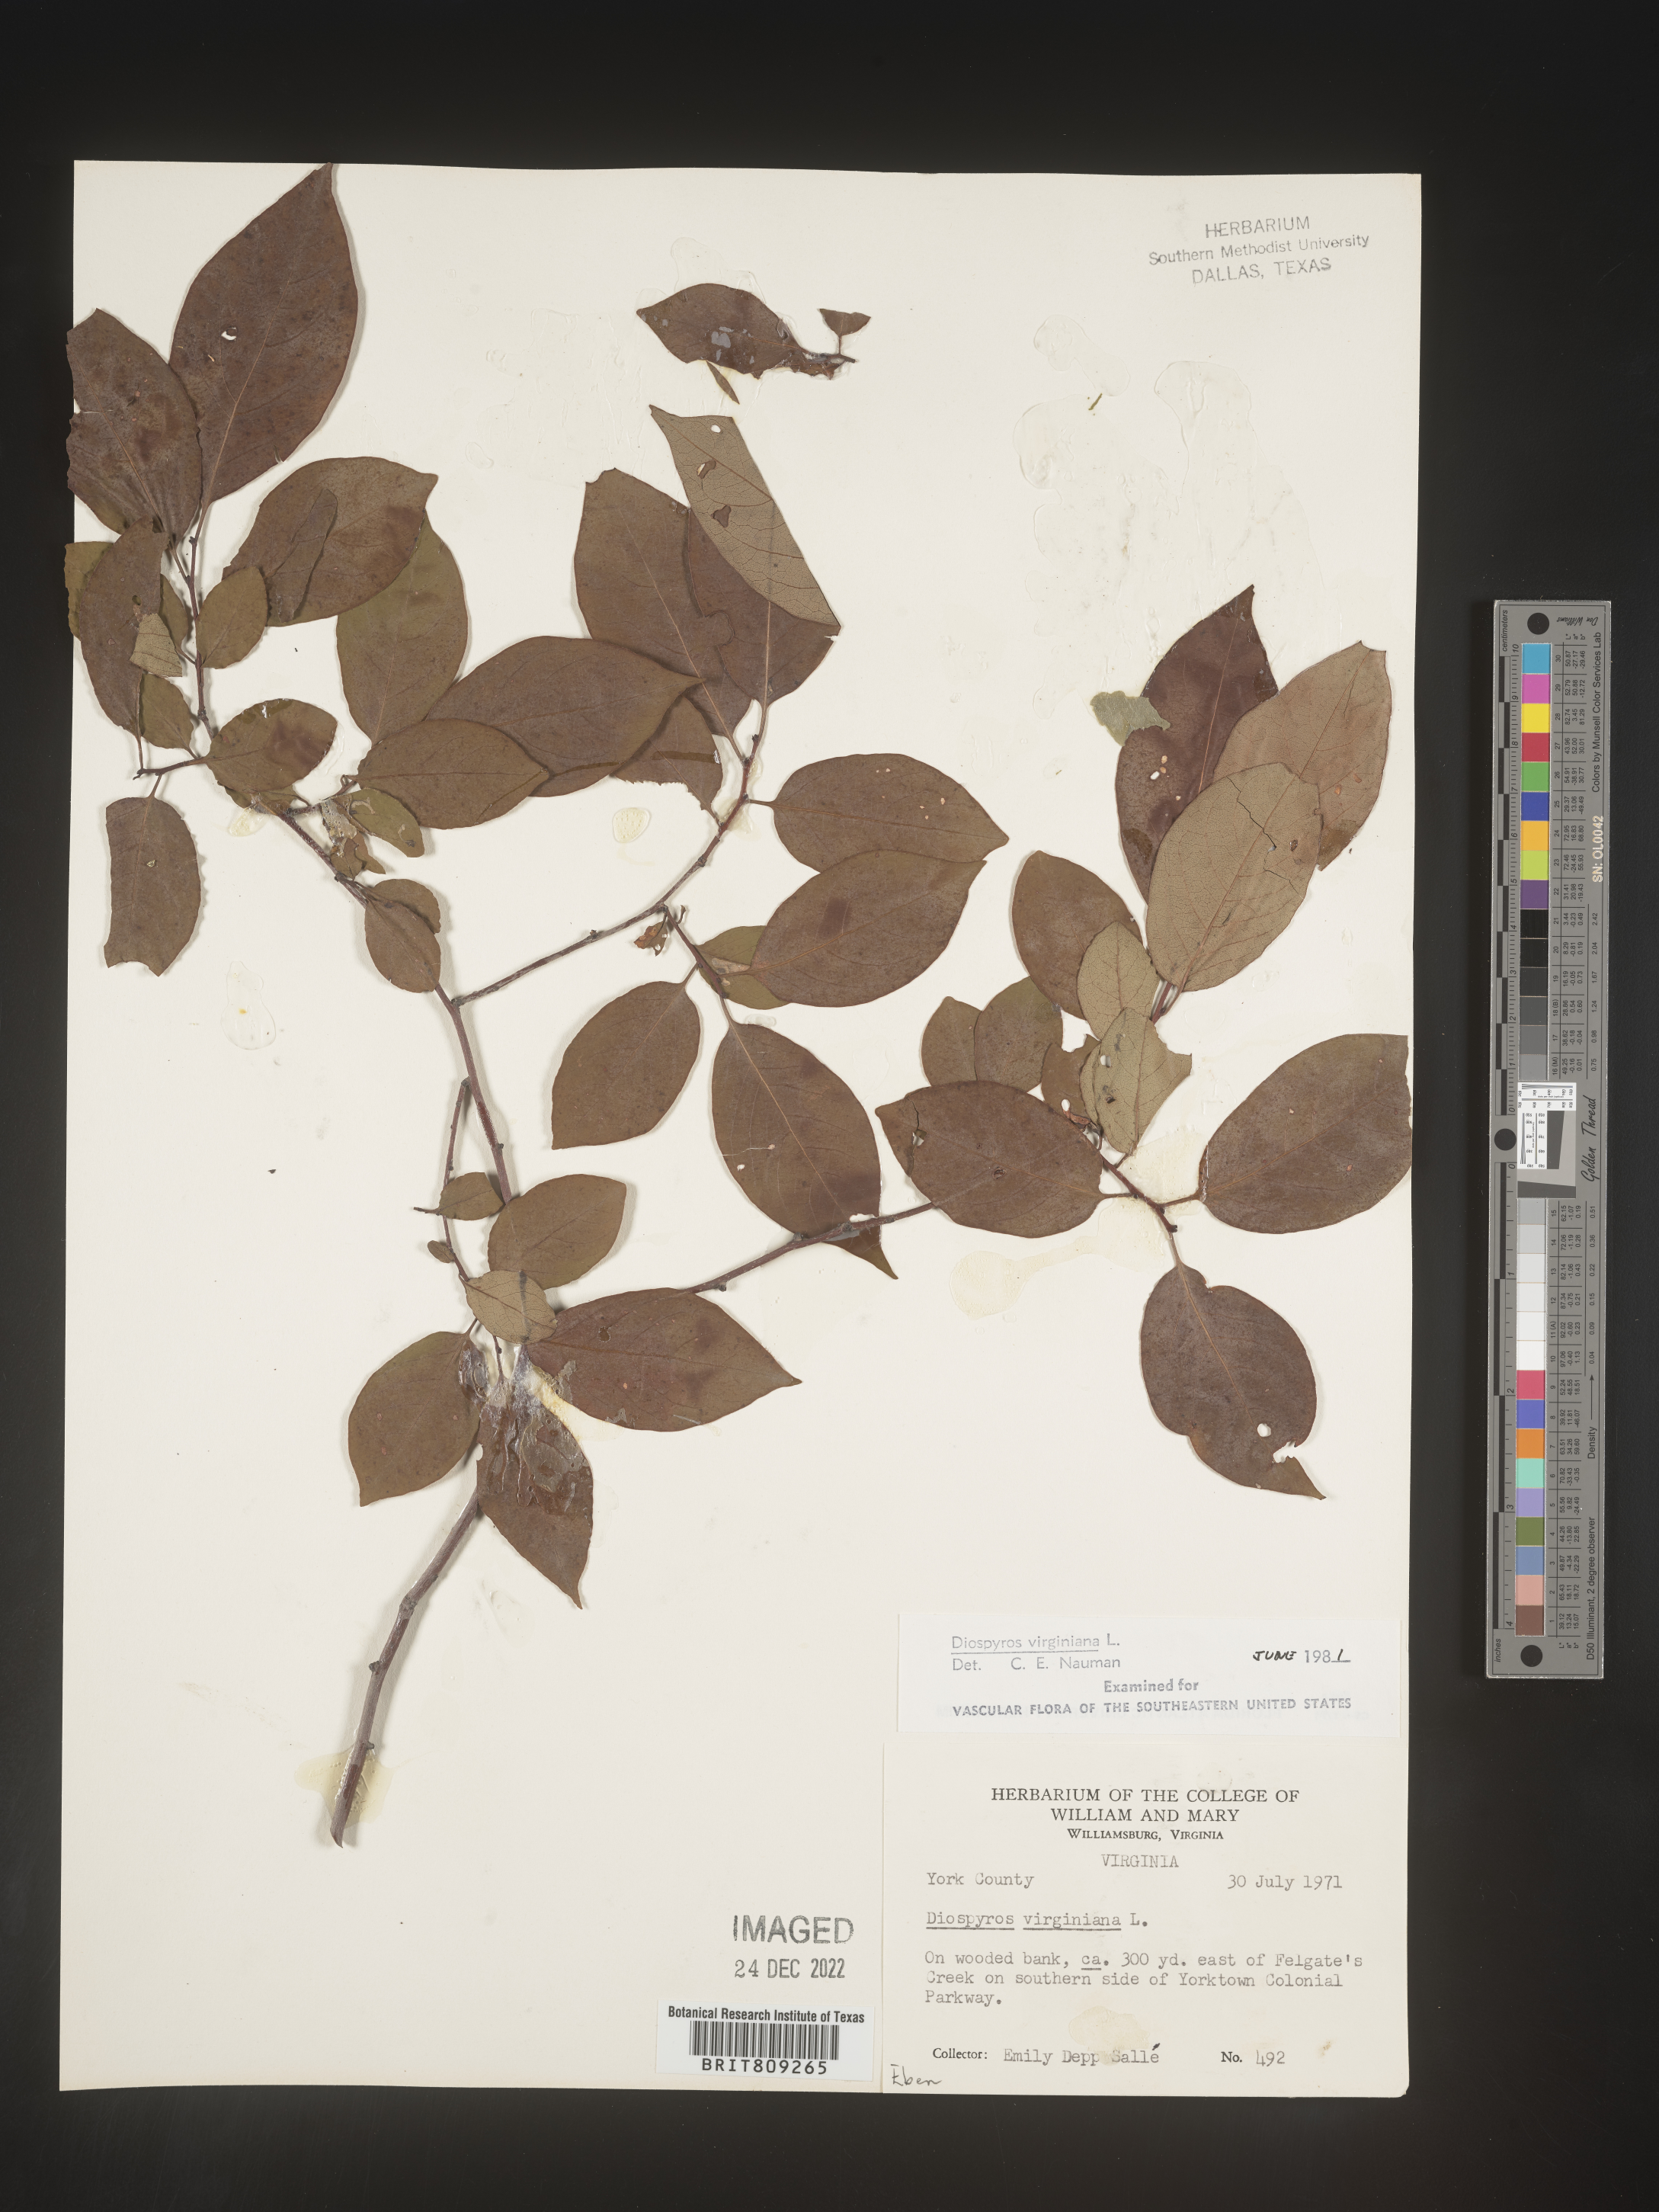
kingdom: Plantae
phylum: Tracheophyta
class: Magnoliopsida
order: Ericales
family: Ebenaceae
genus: Diospyros
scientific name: Diospyros virginiana
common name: Persimmon
